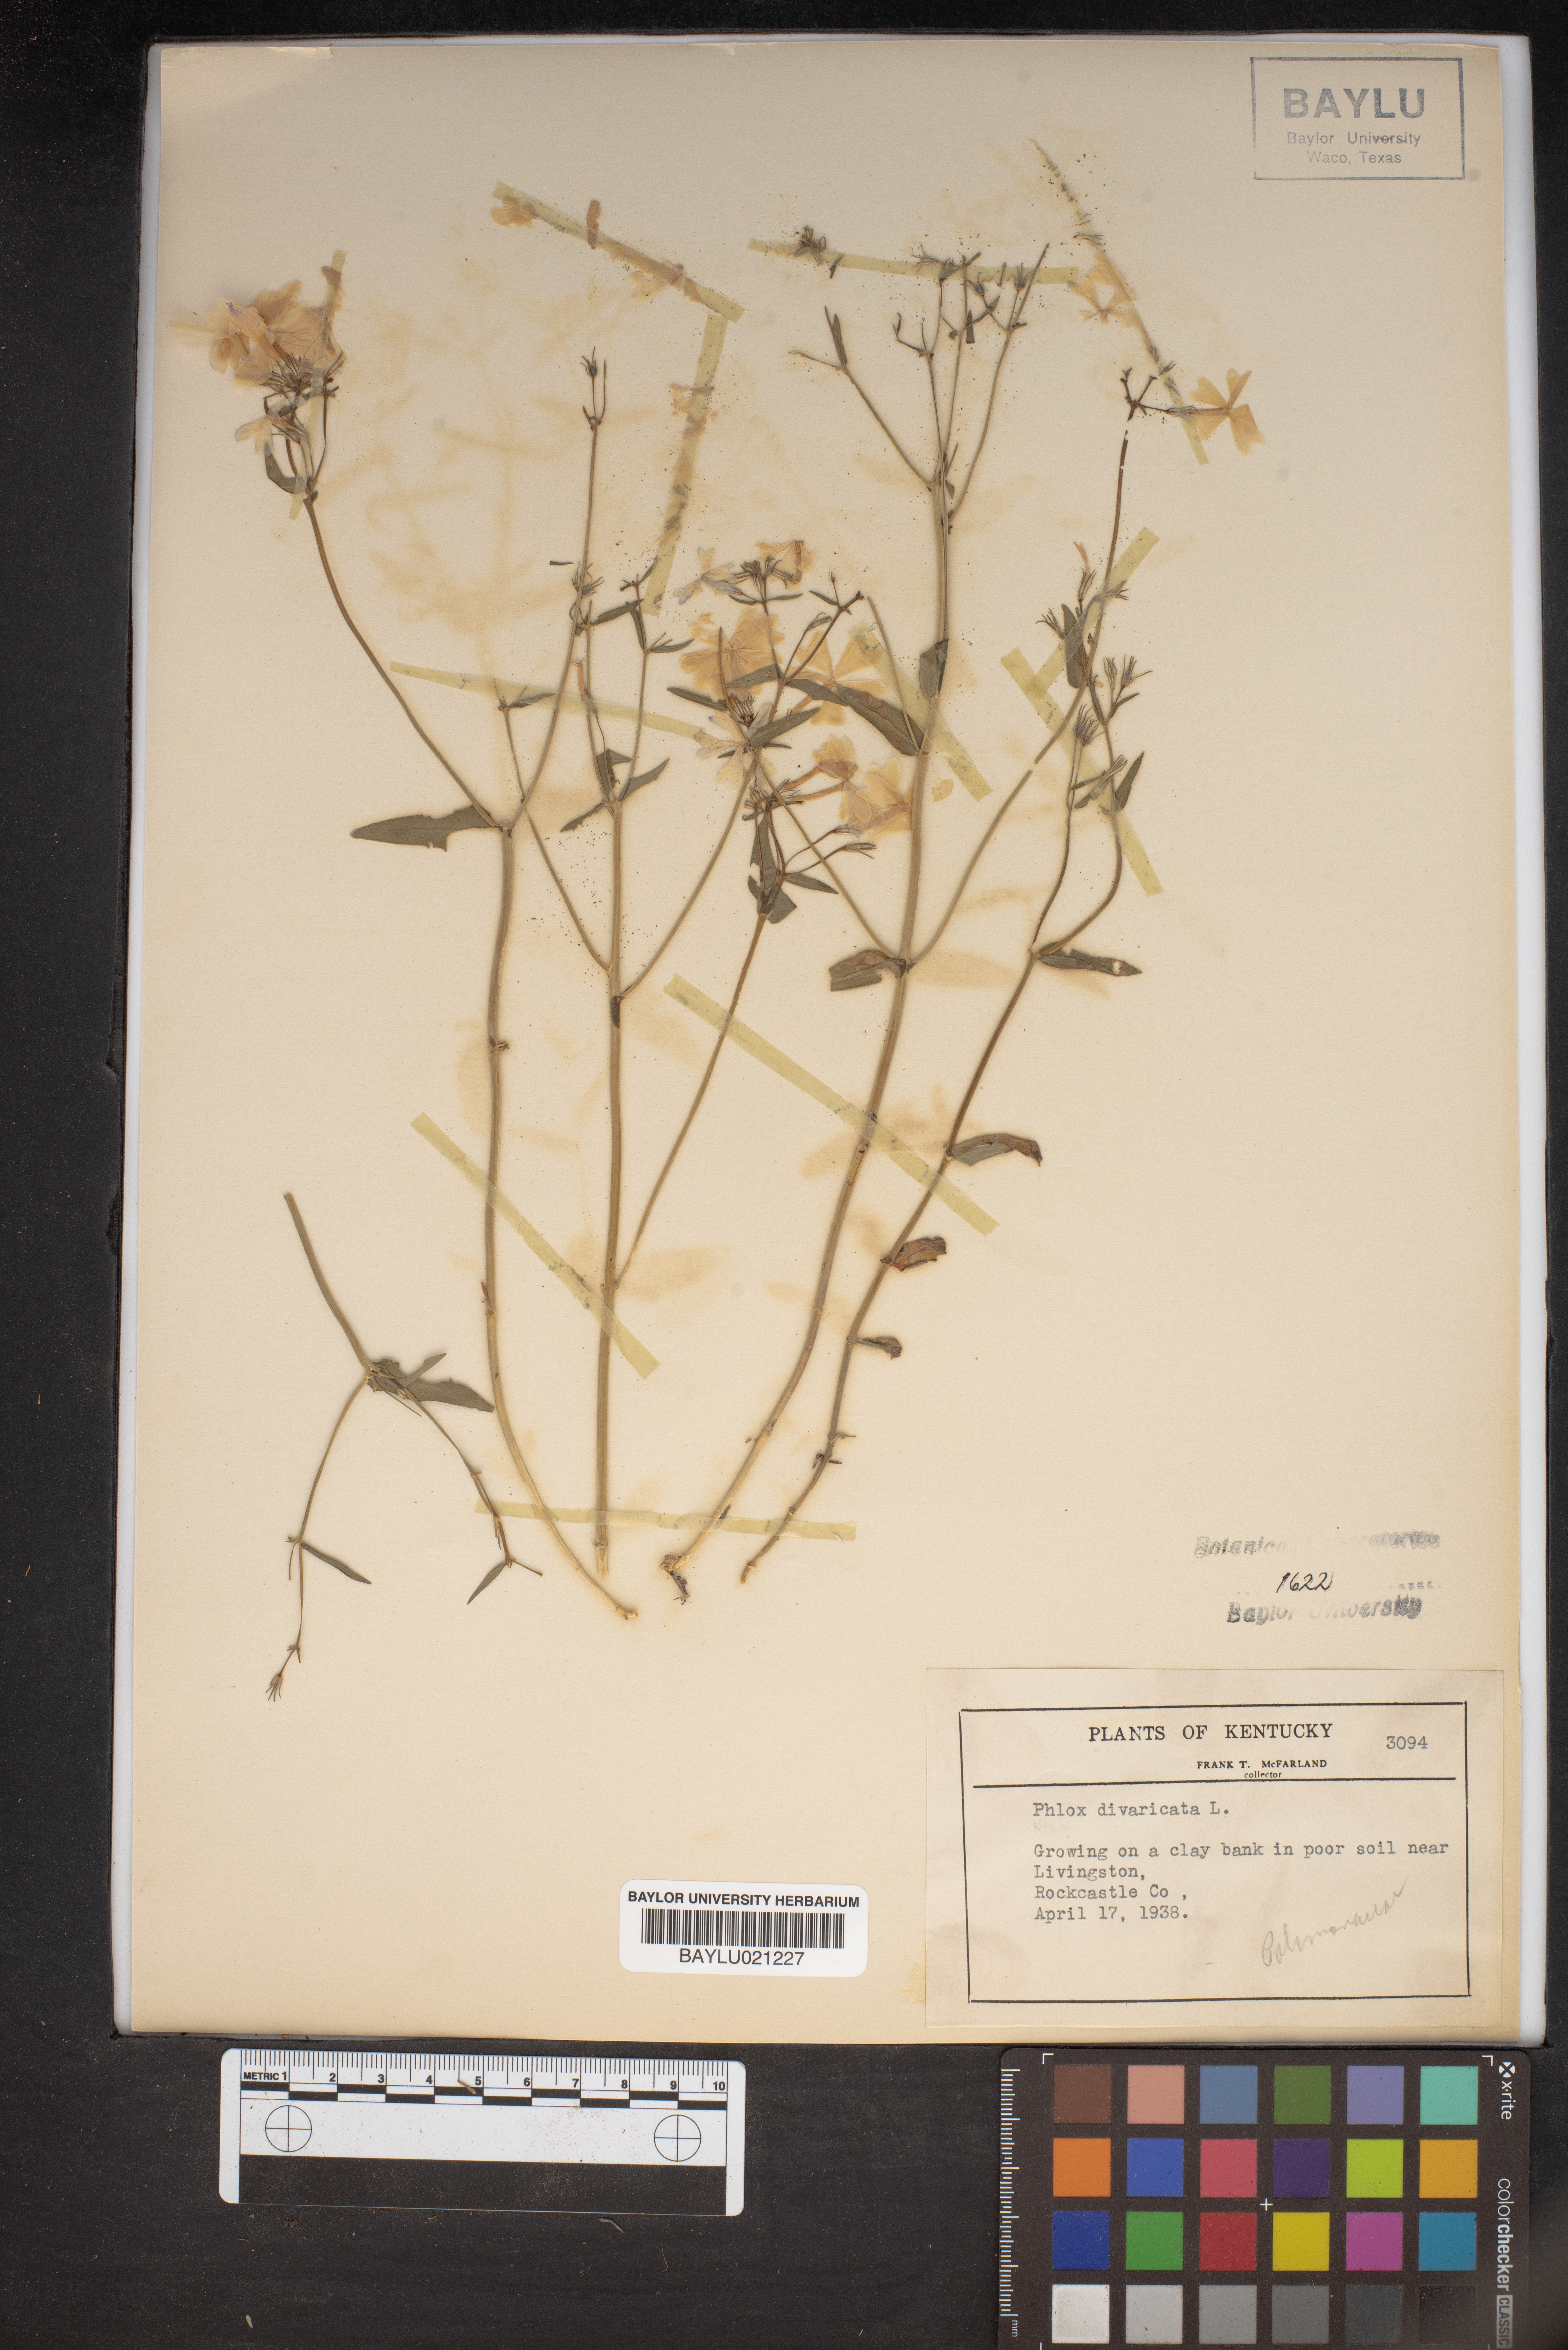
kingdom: Plantae
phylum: Tracheophyta
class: Magnoliopsida
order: Ericales
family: Polemoniaceae
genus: Phlox
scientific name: Phlox divaricata
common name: Blue phlox
